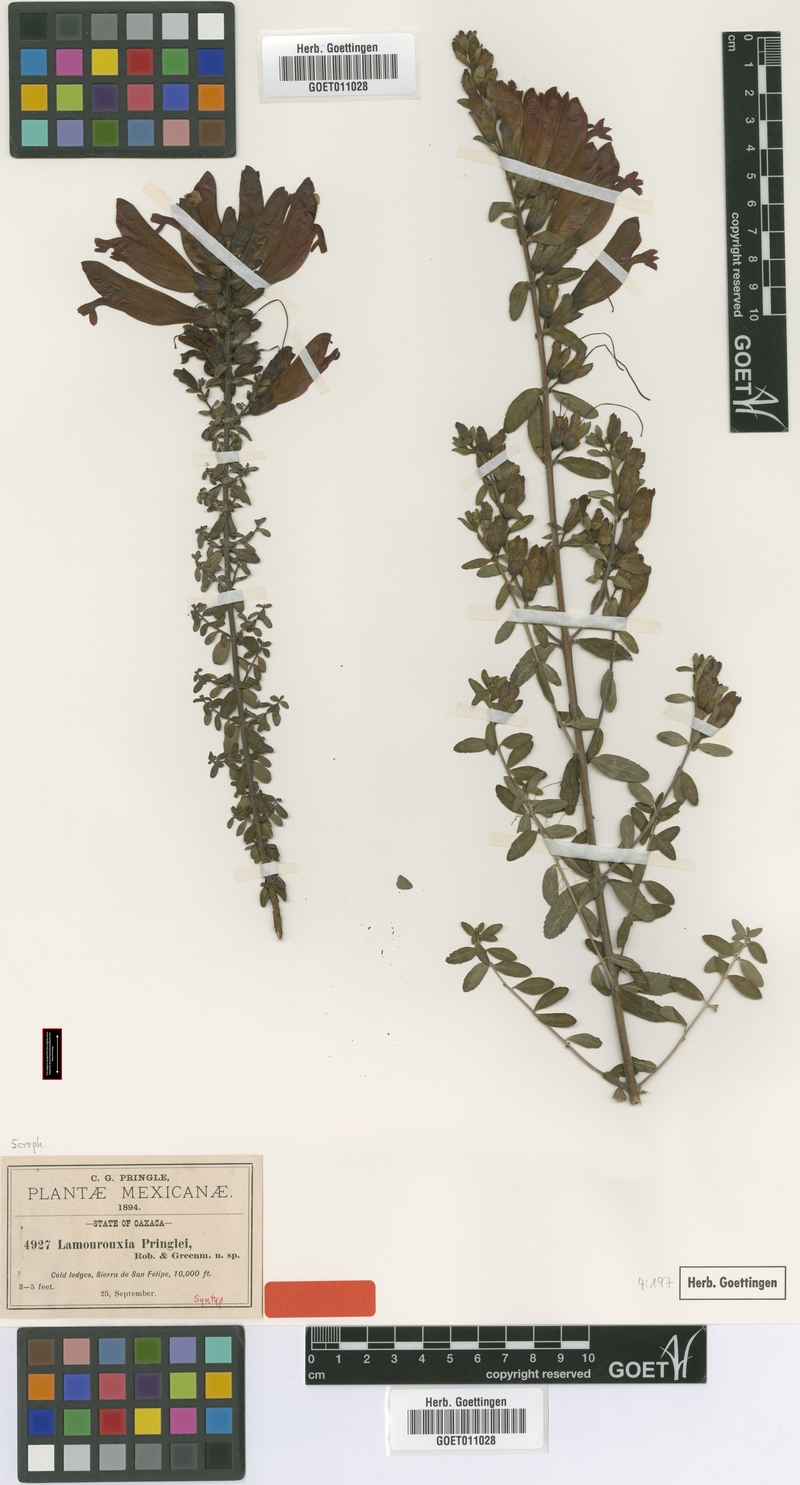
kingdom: Plantae
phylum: Tracheophyta
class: Magnoliopsida
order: Lamiales
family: Orobanchaceae
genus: Lamourouxia
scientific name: Lamourouxia pringlei
